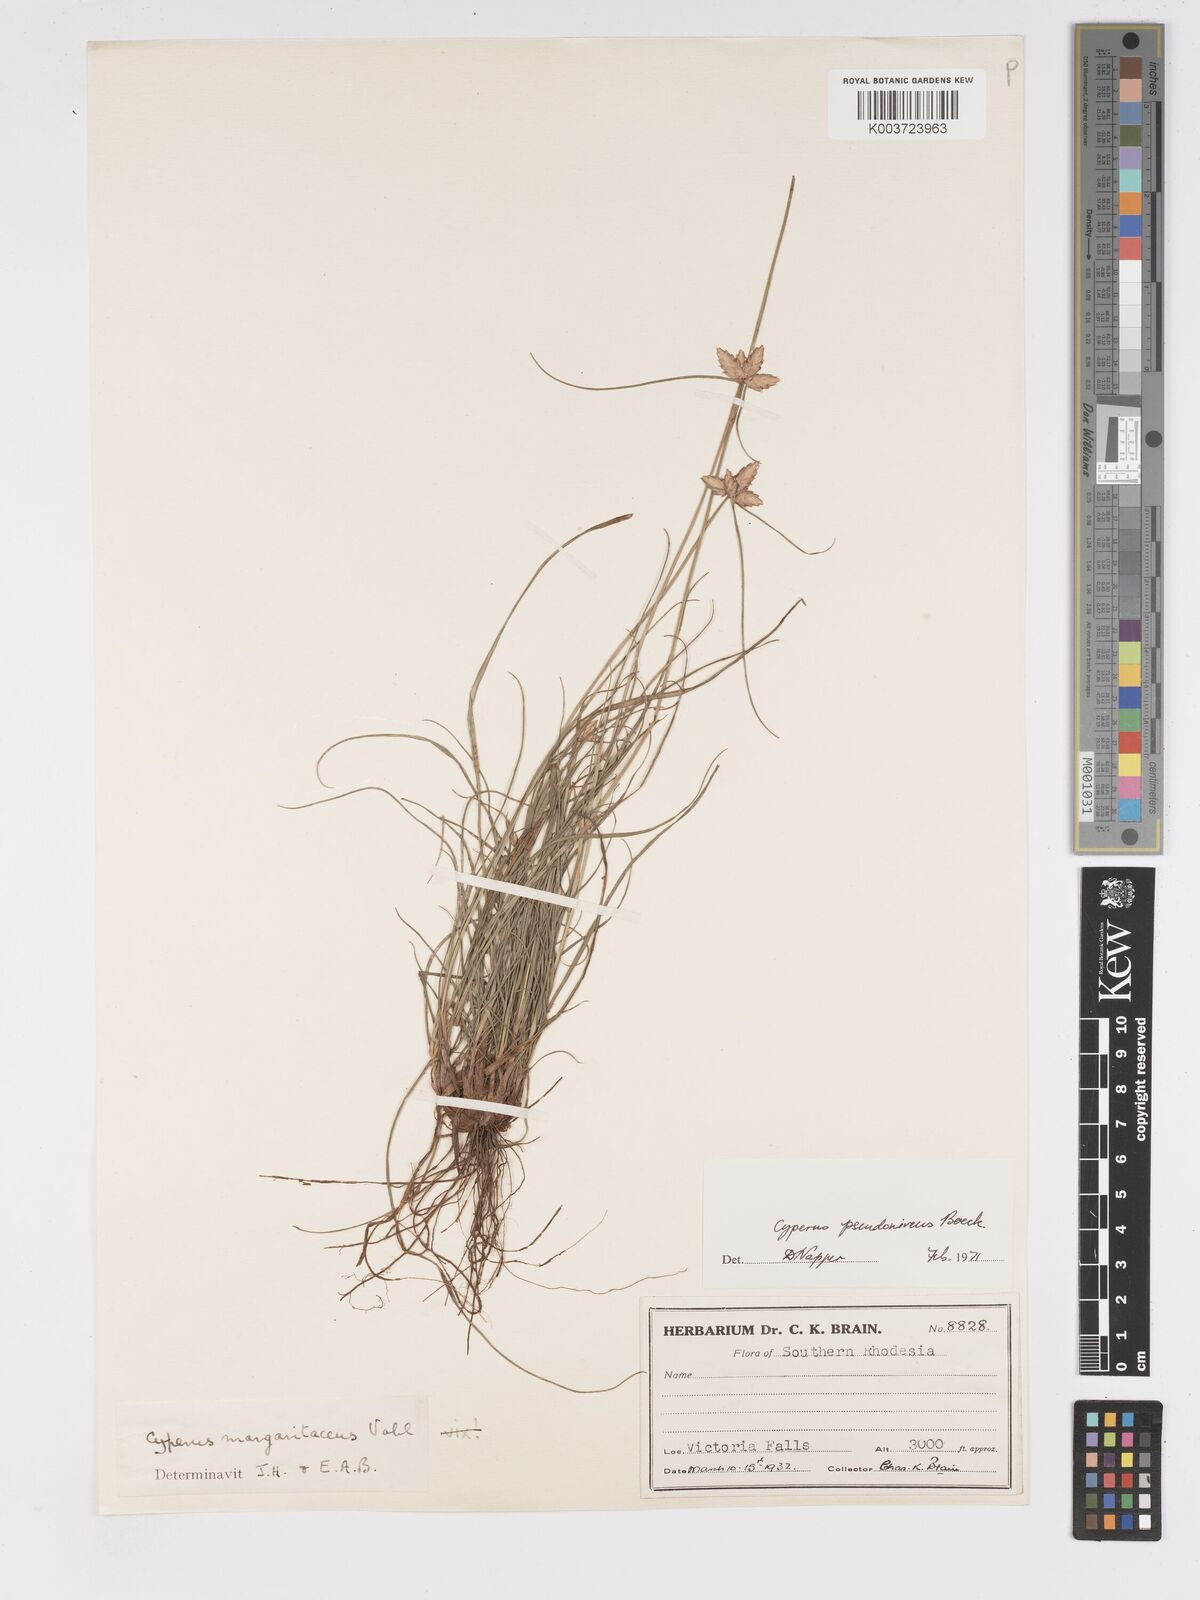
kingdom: Plantae
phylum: Tracheophyta
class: Liliopsida
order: Poales
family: Cyperaceae
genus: Cyperus
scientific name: Cyperus margaritaceus
